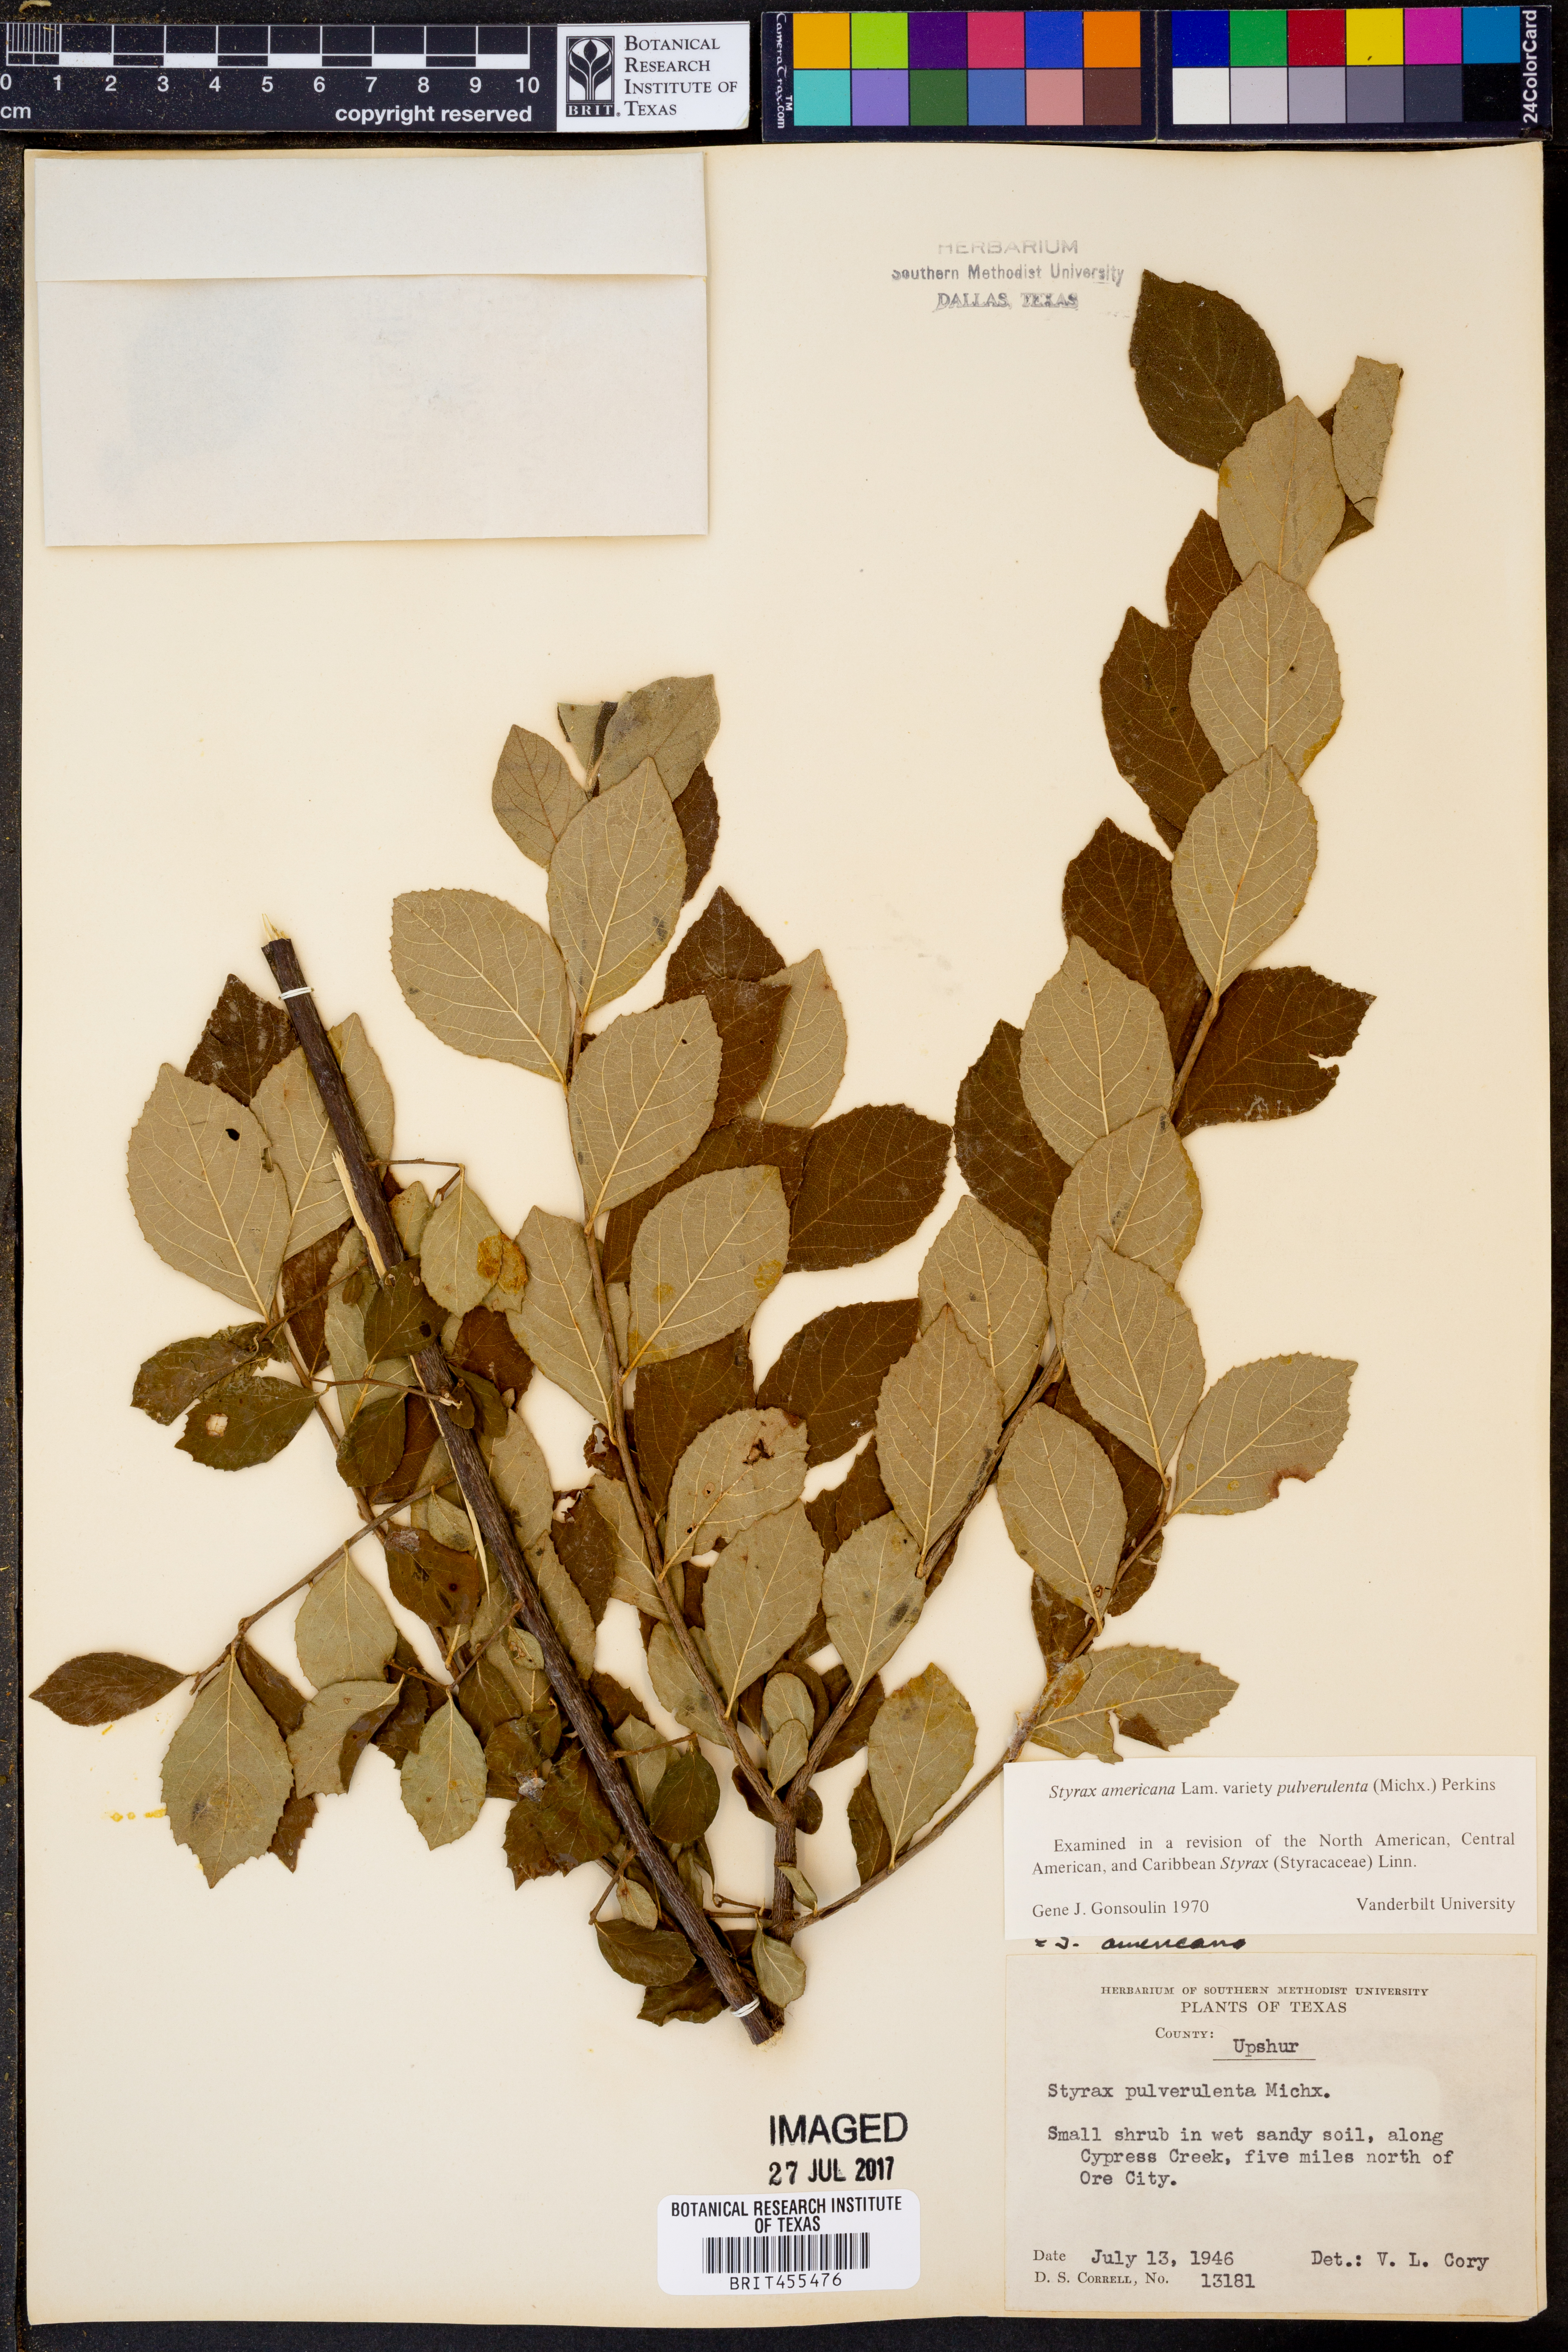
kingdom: Plantae
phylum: Tracheophyta
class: Magnoliopsida
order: Ericales
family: Styracaceae
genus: Styrax
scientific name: Styrax americanus
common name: American snowbell
